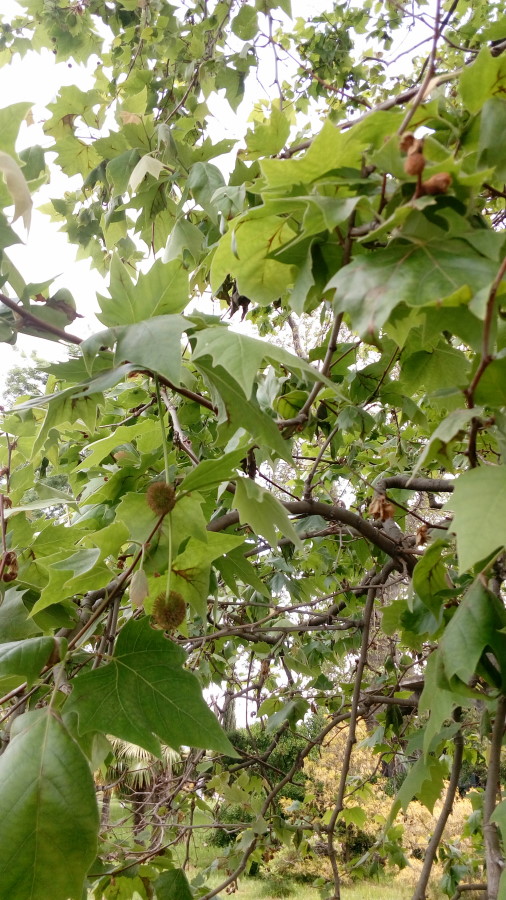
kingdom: Plantae
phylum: Tracheophyta
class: Magnoliopsida
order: Proteales
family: Platanaceae
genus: Platanus
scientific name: Platanus occidentalis
